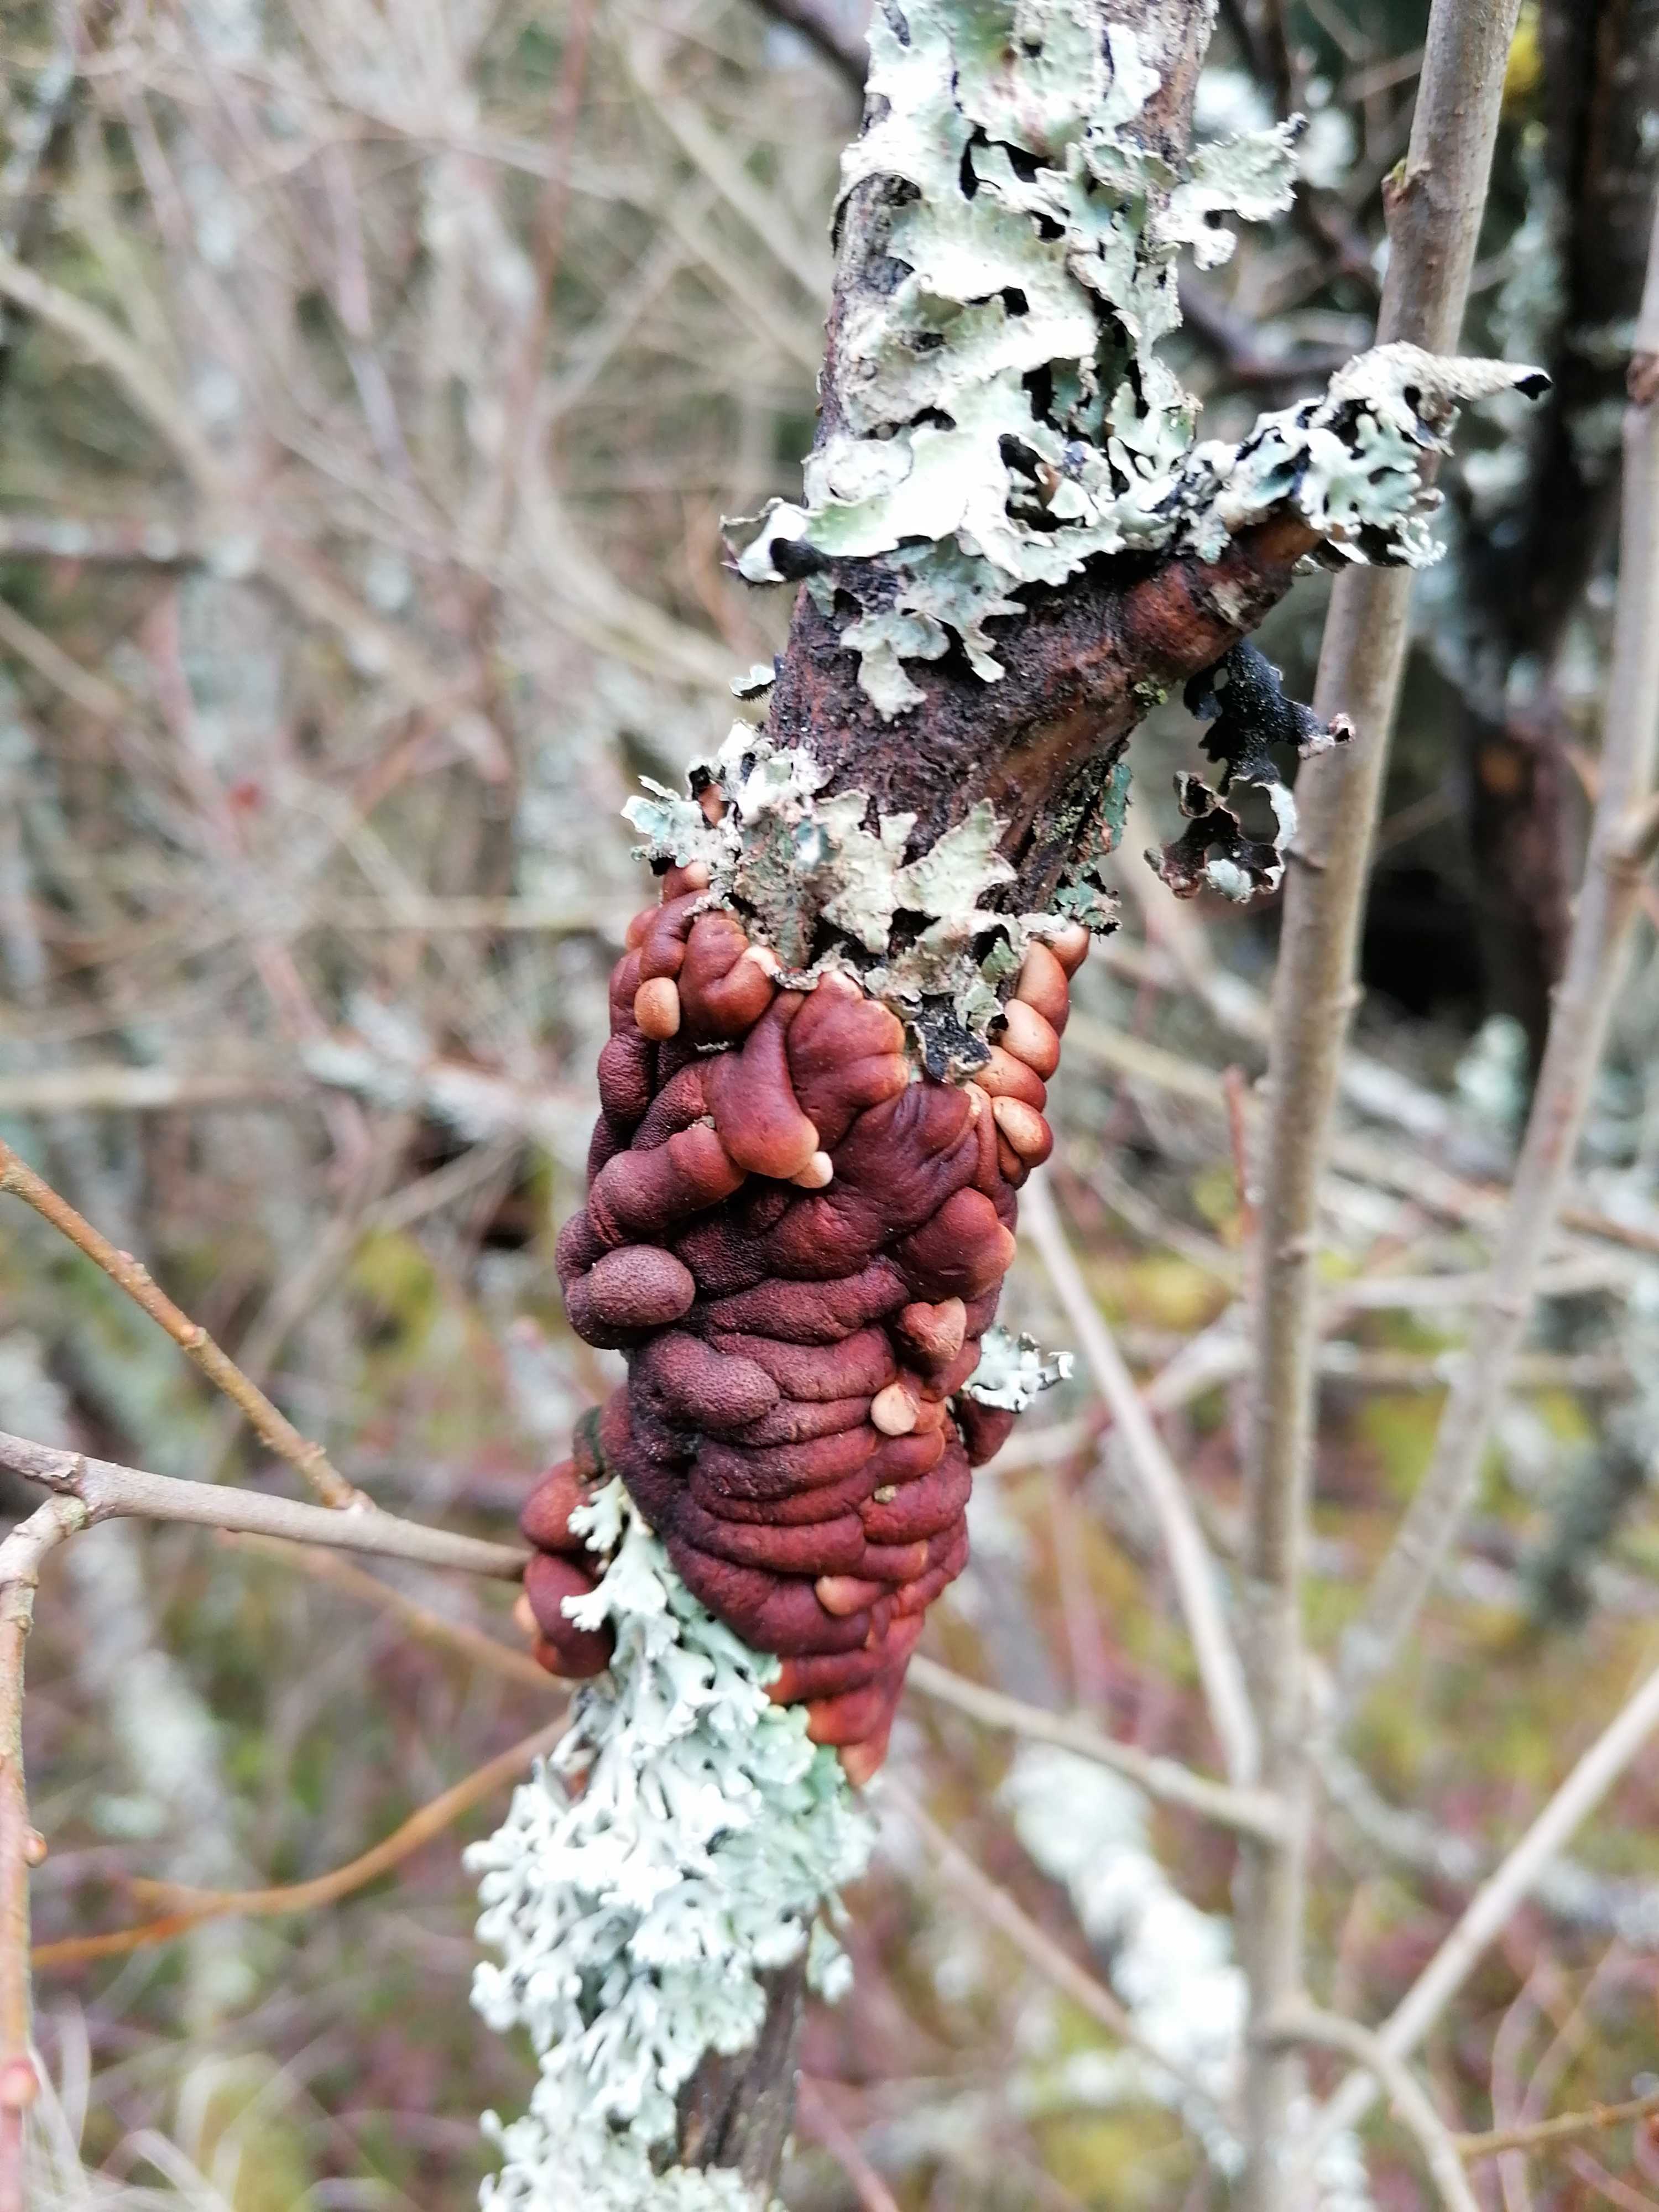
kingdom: Fungi
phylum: Ascomycota
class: Sordariomycetes
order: Hypocreales
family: Hypocreaceae
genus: Hypocreopsis
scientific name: Hypocreopsis lichenoides
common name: pilfinger
